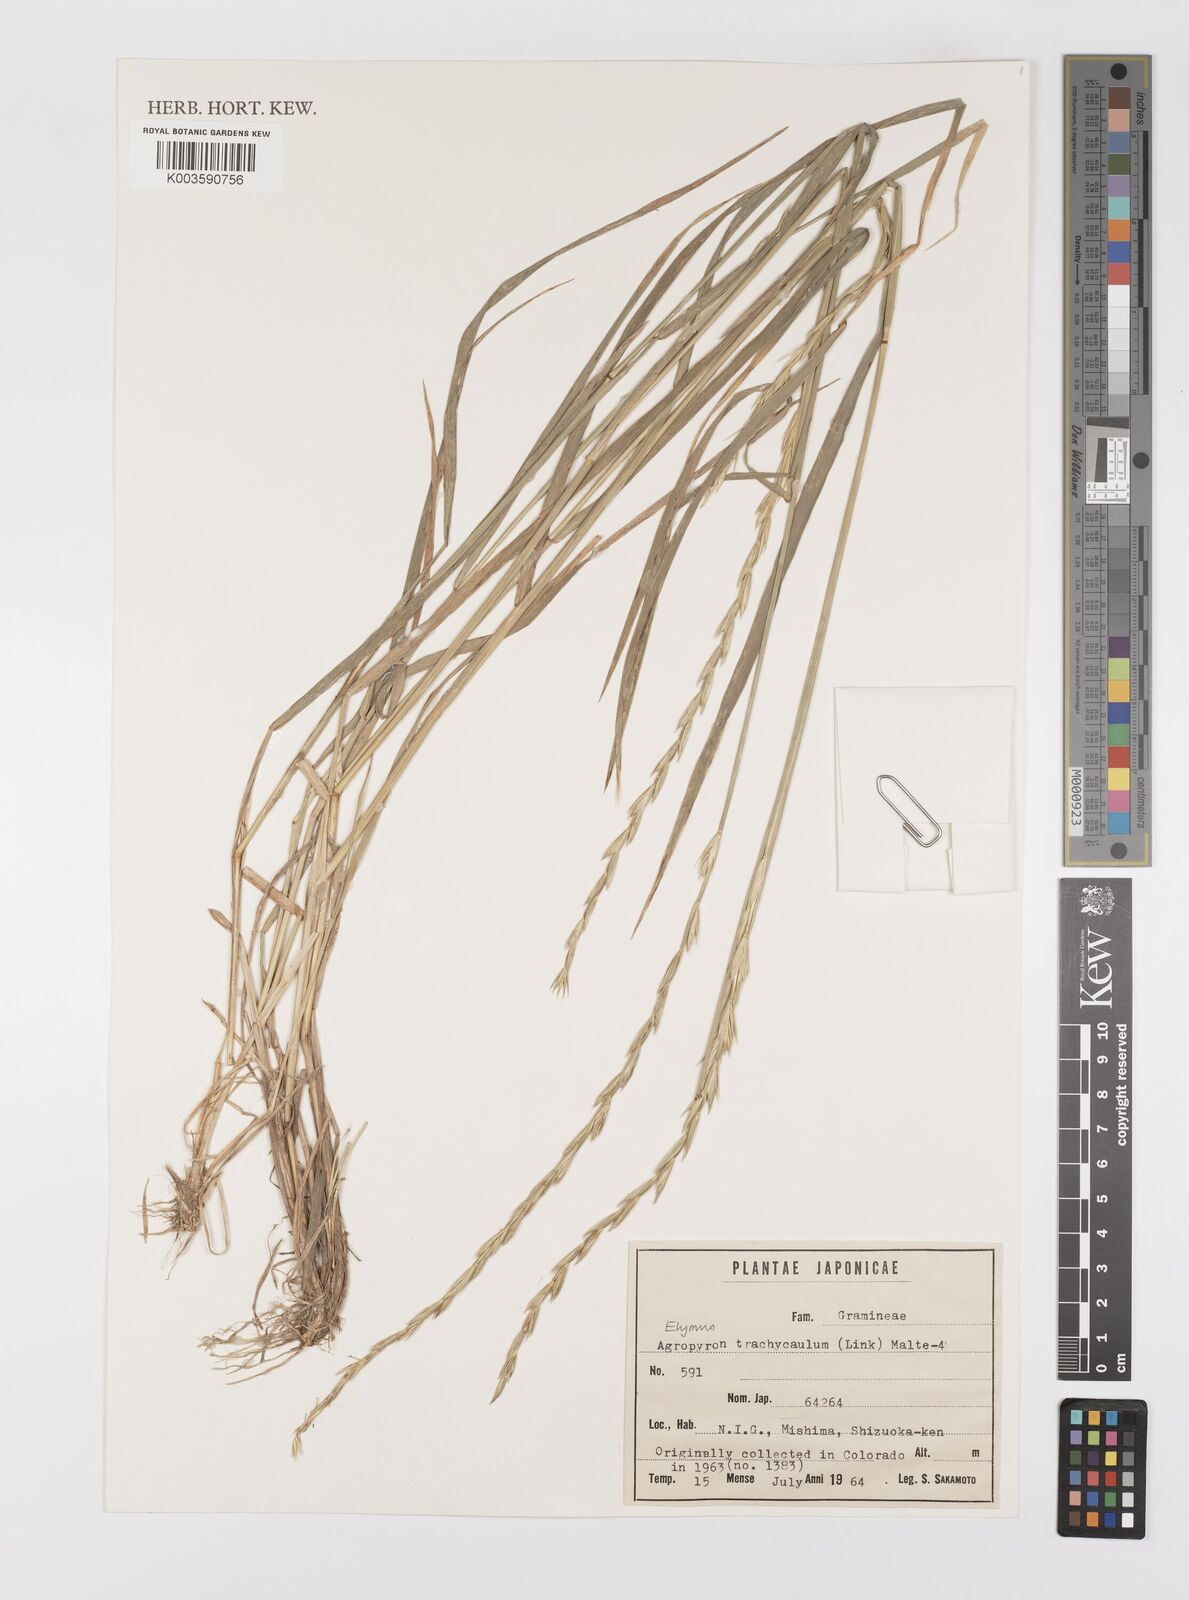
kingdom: Plantae
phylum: Tracheophyta
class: Liliopsida
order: Poales
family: Poaceae
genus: Elymus
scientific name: Elymus violaceus
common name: Arctic wheatgrass
